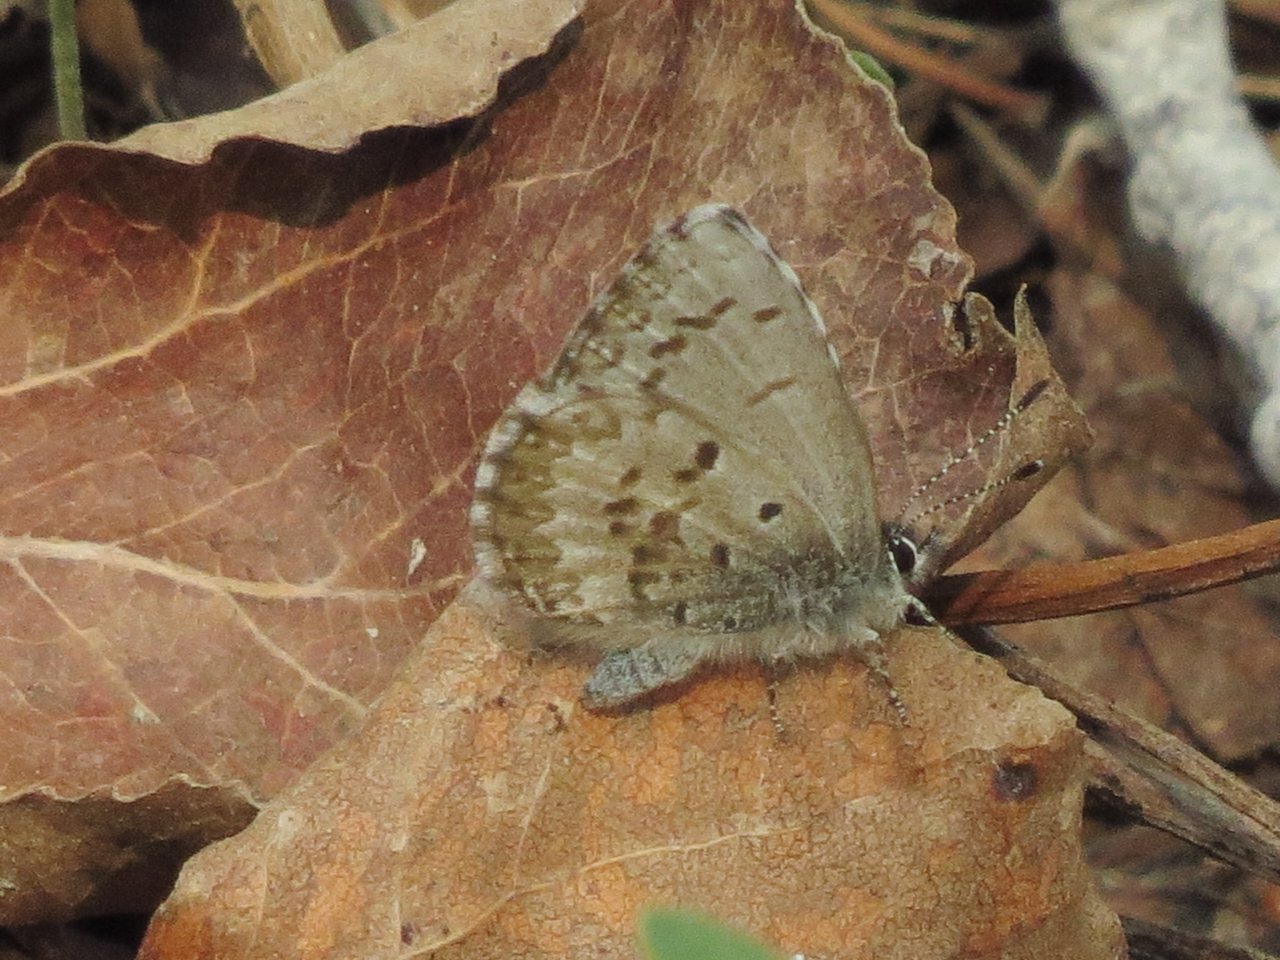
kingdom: Animalia
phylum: Arthropoda
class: Insecta
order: Lepidoptera
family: Lycaenidae
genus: Celastrina
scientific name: Celastrina lucia
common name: Northern Spring Azure
